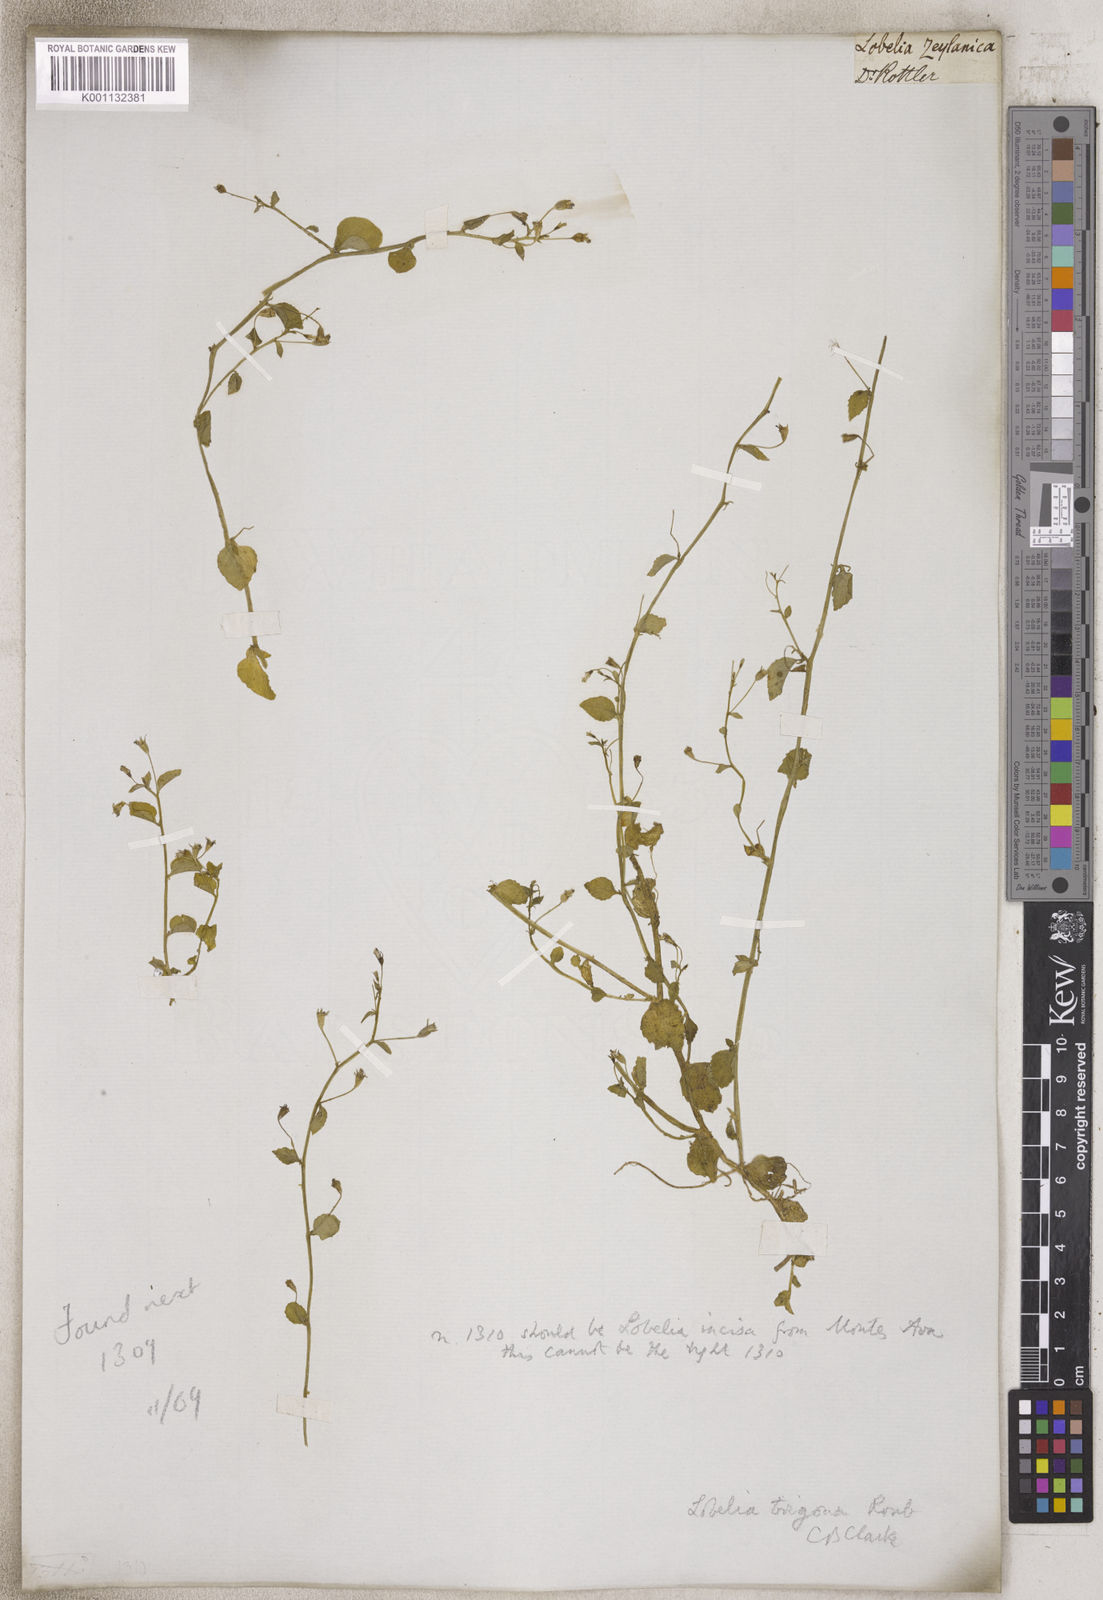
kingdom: Plantae
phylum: Tracheophyta
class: Magnoliopsida
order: Asterales
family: Campanulaceae
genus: Lobelia
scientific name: Lobelia
